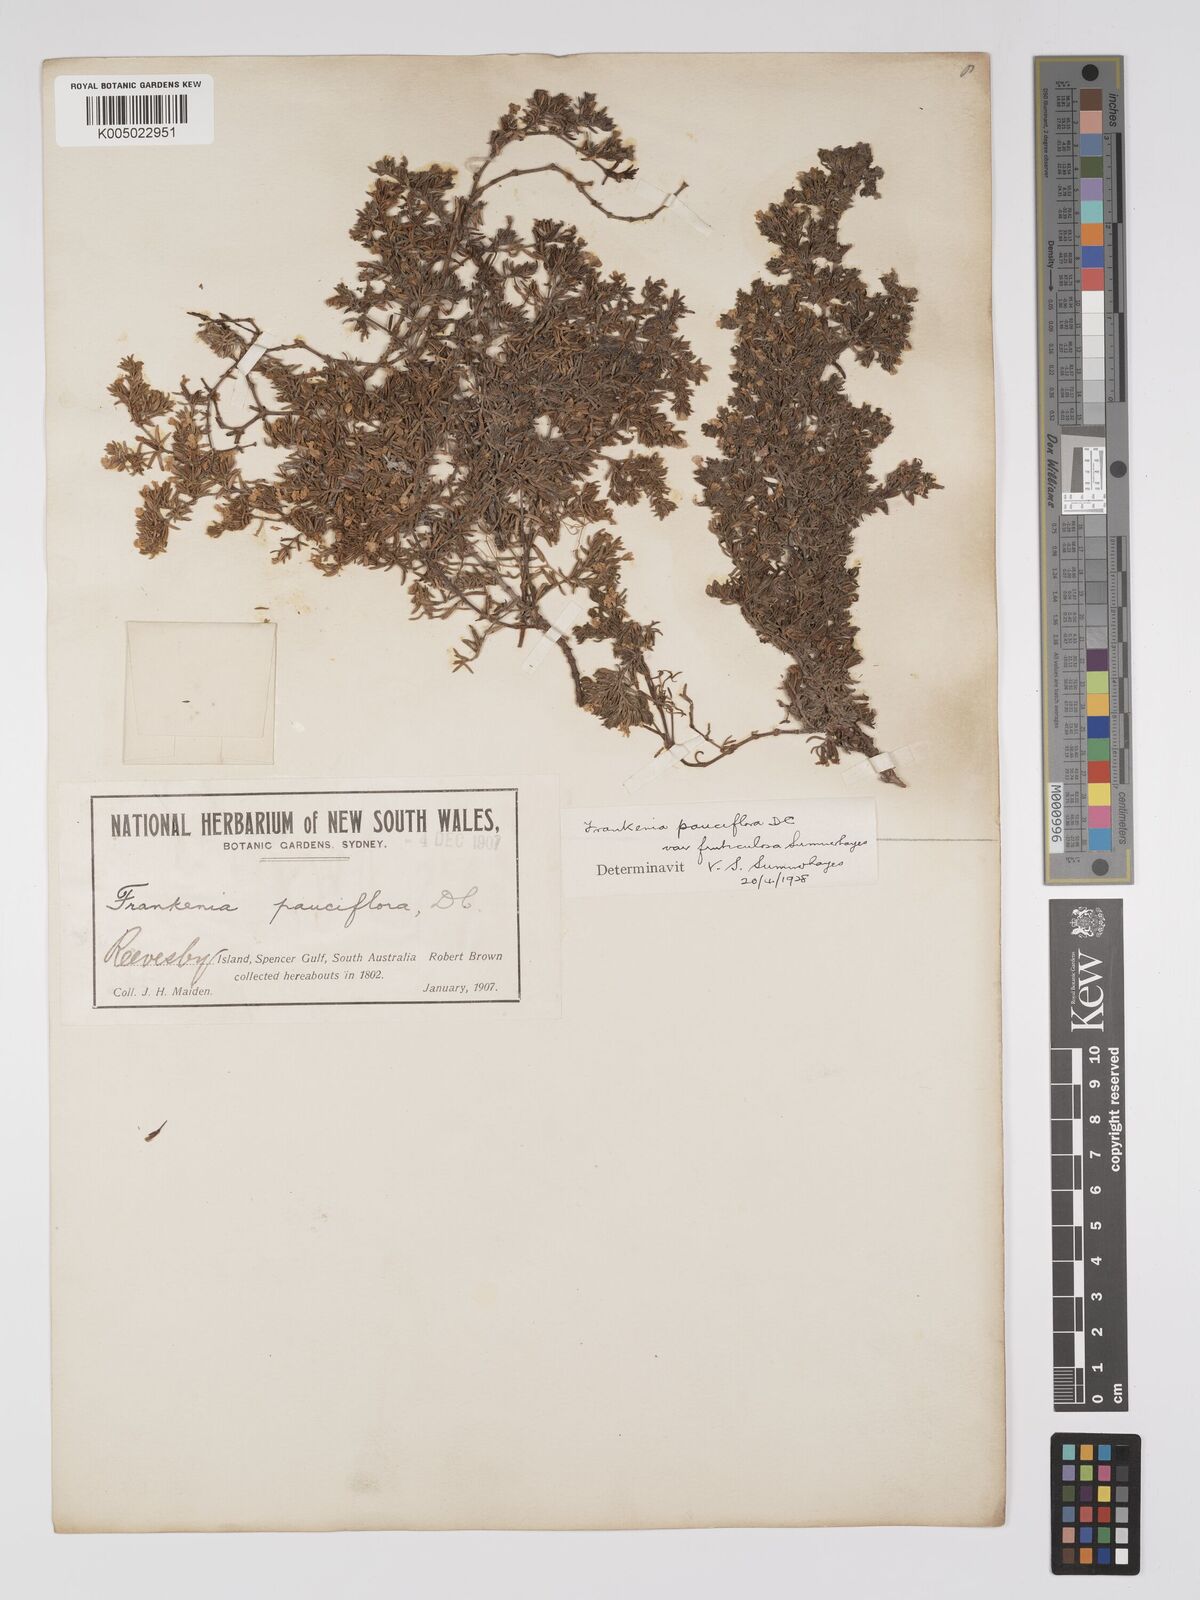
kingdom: Plantae
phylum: Tracheophyta
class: Magnoliopsida
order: Caryophyllales
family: Frankeniaceae
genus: Frankenia
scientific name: Frankenia pauciflora
